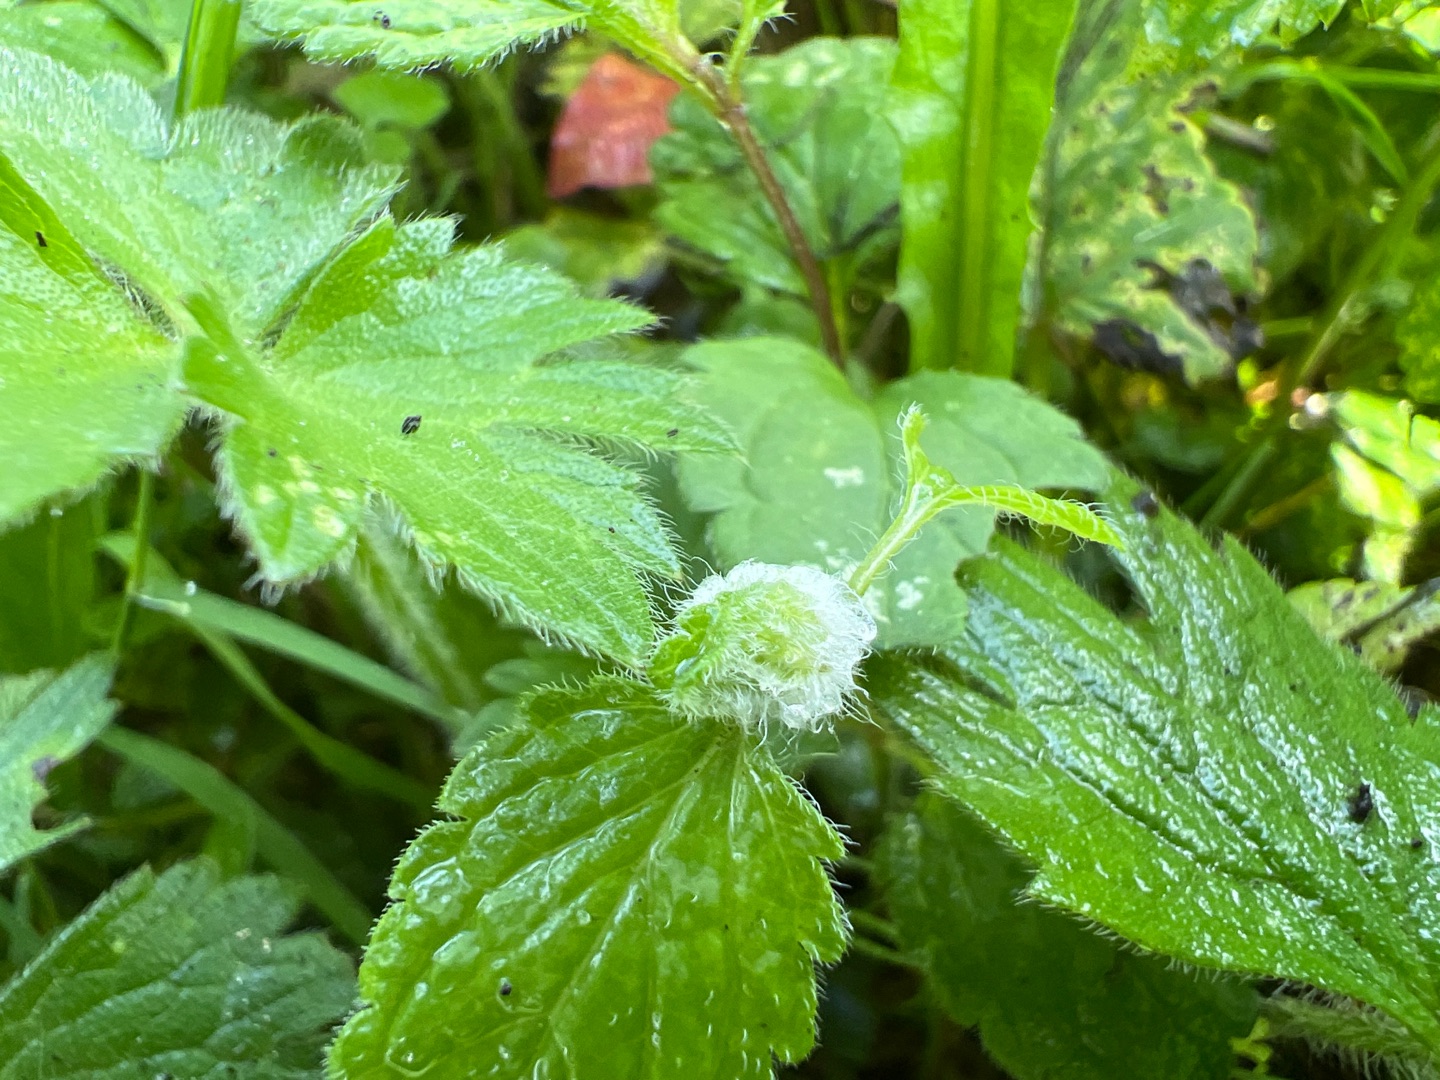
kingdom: Animalia
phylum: Arthropoda
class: Insecta
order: Diptera
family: Cecidomyiidae
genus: Jaapiella
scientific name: Jaapiella veronicae
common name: Ærenprisgalmyg
